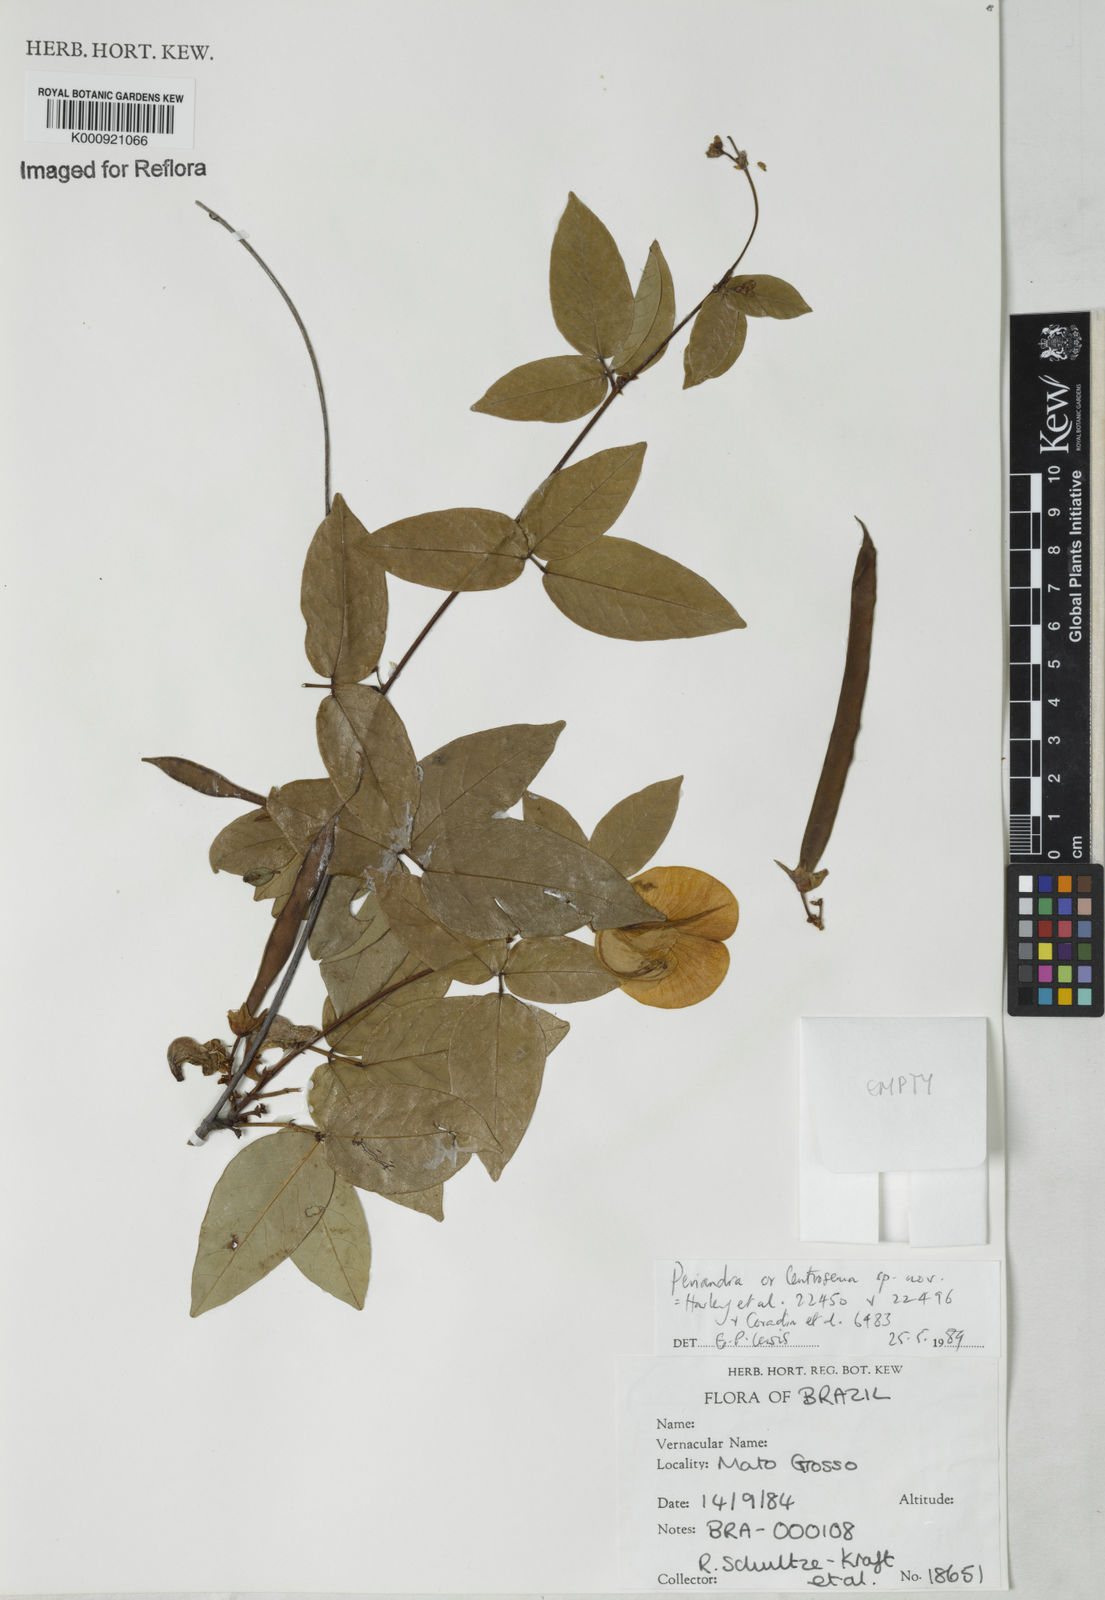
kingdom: Plantae
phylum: Tracheophyta
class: Magnoliopsida
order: Fabales
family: Fabaceae
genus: Periandra
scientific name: Periandra
